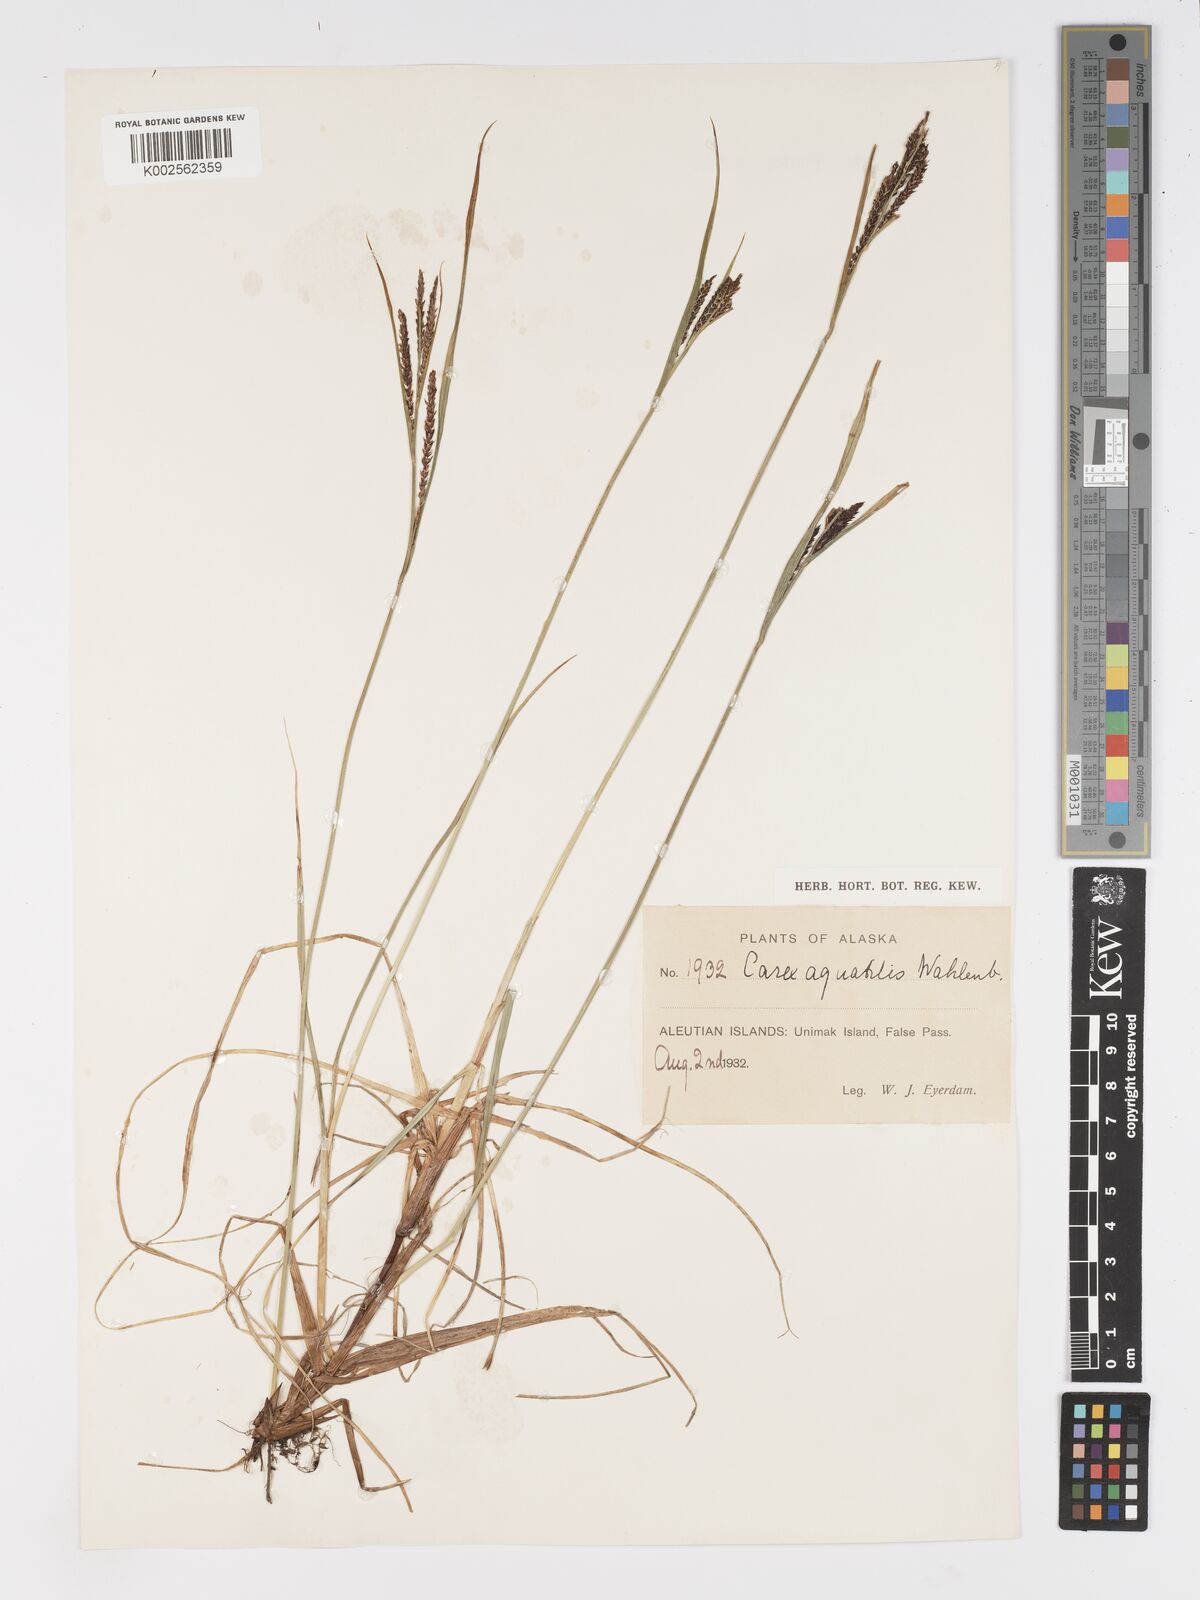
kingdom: Plantae
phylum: Tracheophyta
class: Liliopsida
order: Poales
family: Cyperaceae
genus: Carex
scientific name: Carex aquatilis
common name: Water sedge
